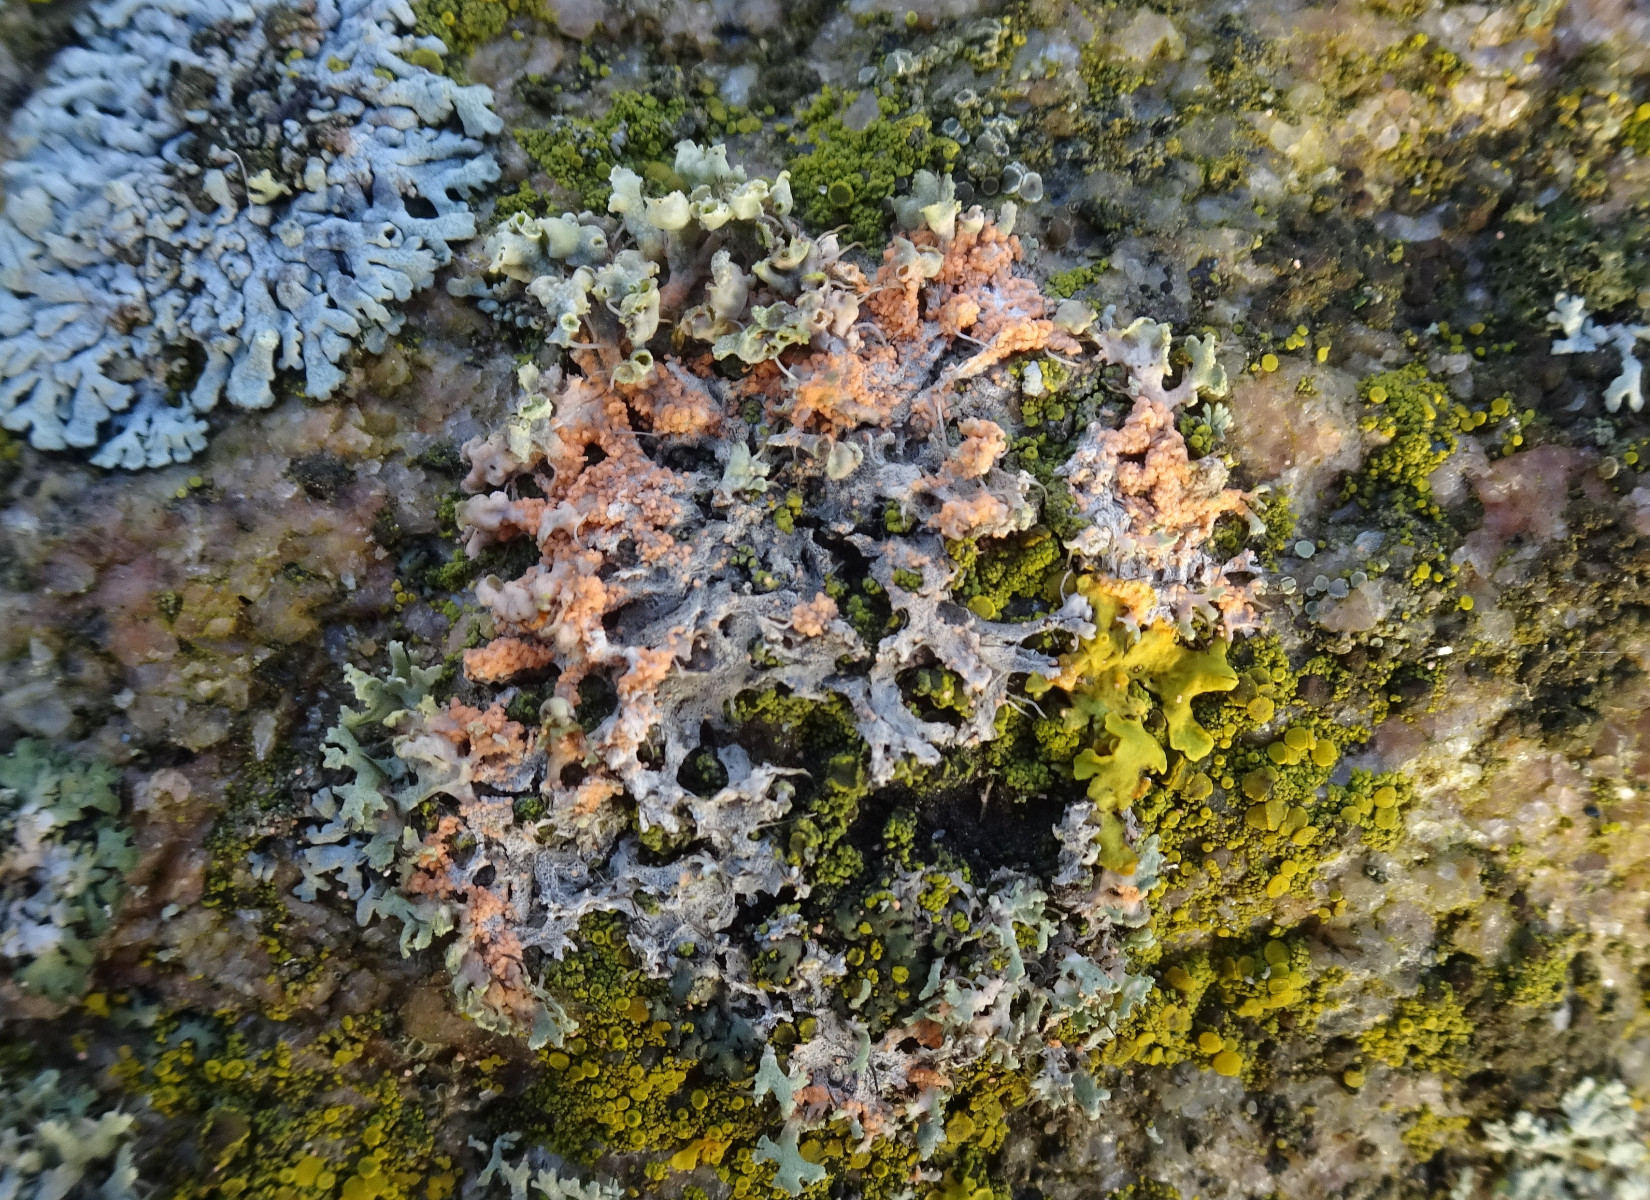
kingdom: Fungi
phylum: Basidiomycota
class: Agaricomycetes
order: Corticiales
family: Corticiaceae
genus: Erythricium
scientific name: Erythricium aurantiacum
